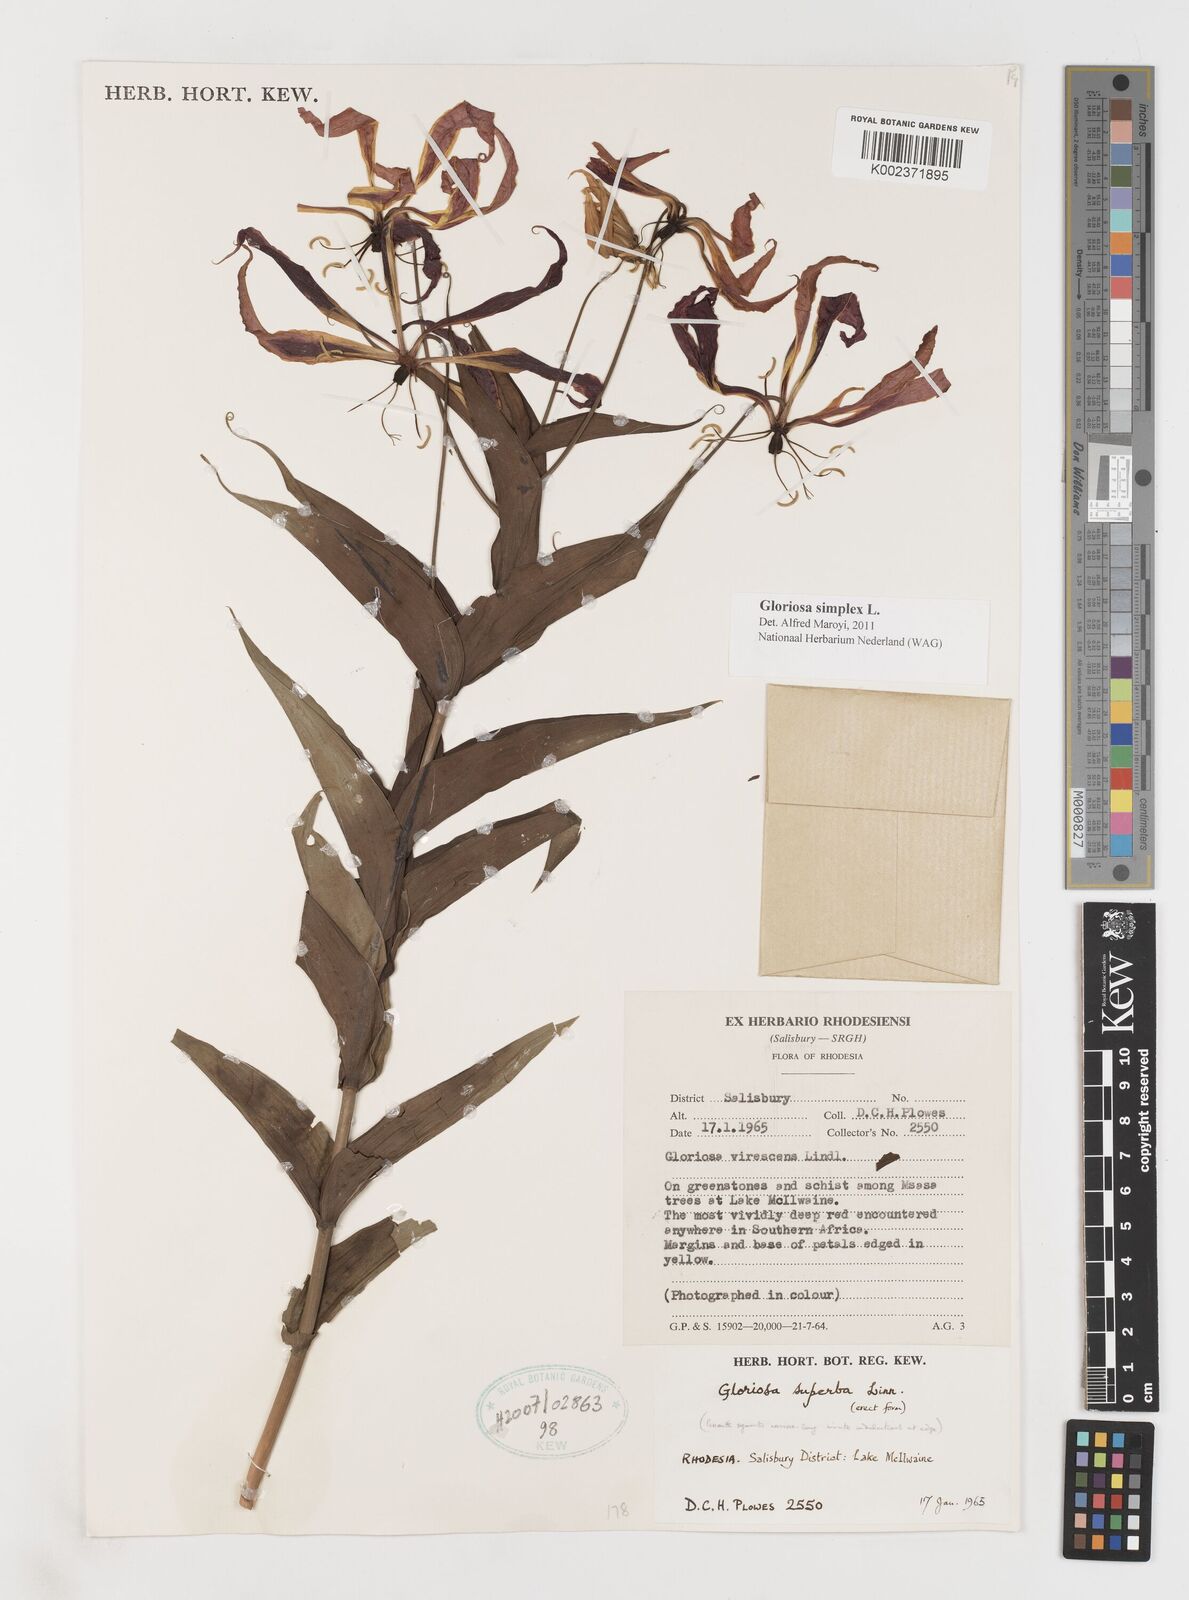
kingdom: Plantae
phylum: Tracheophyta
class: Liliopsida
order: Liliales
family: Colchicaceae
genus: Gloriosa
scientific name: Gloriosa simplex
